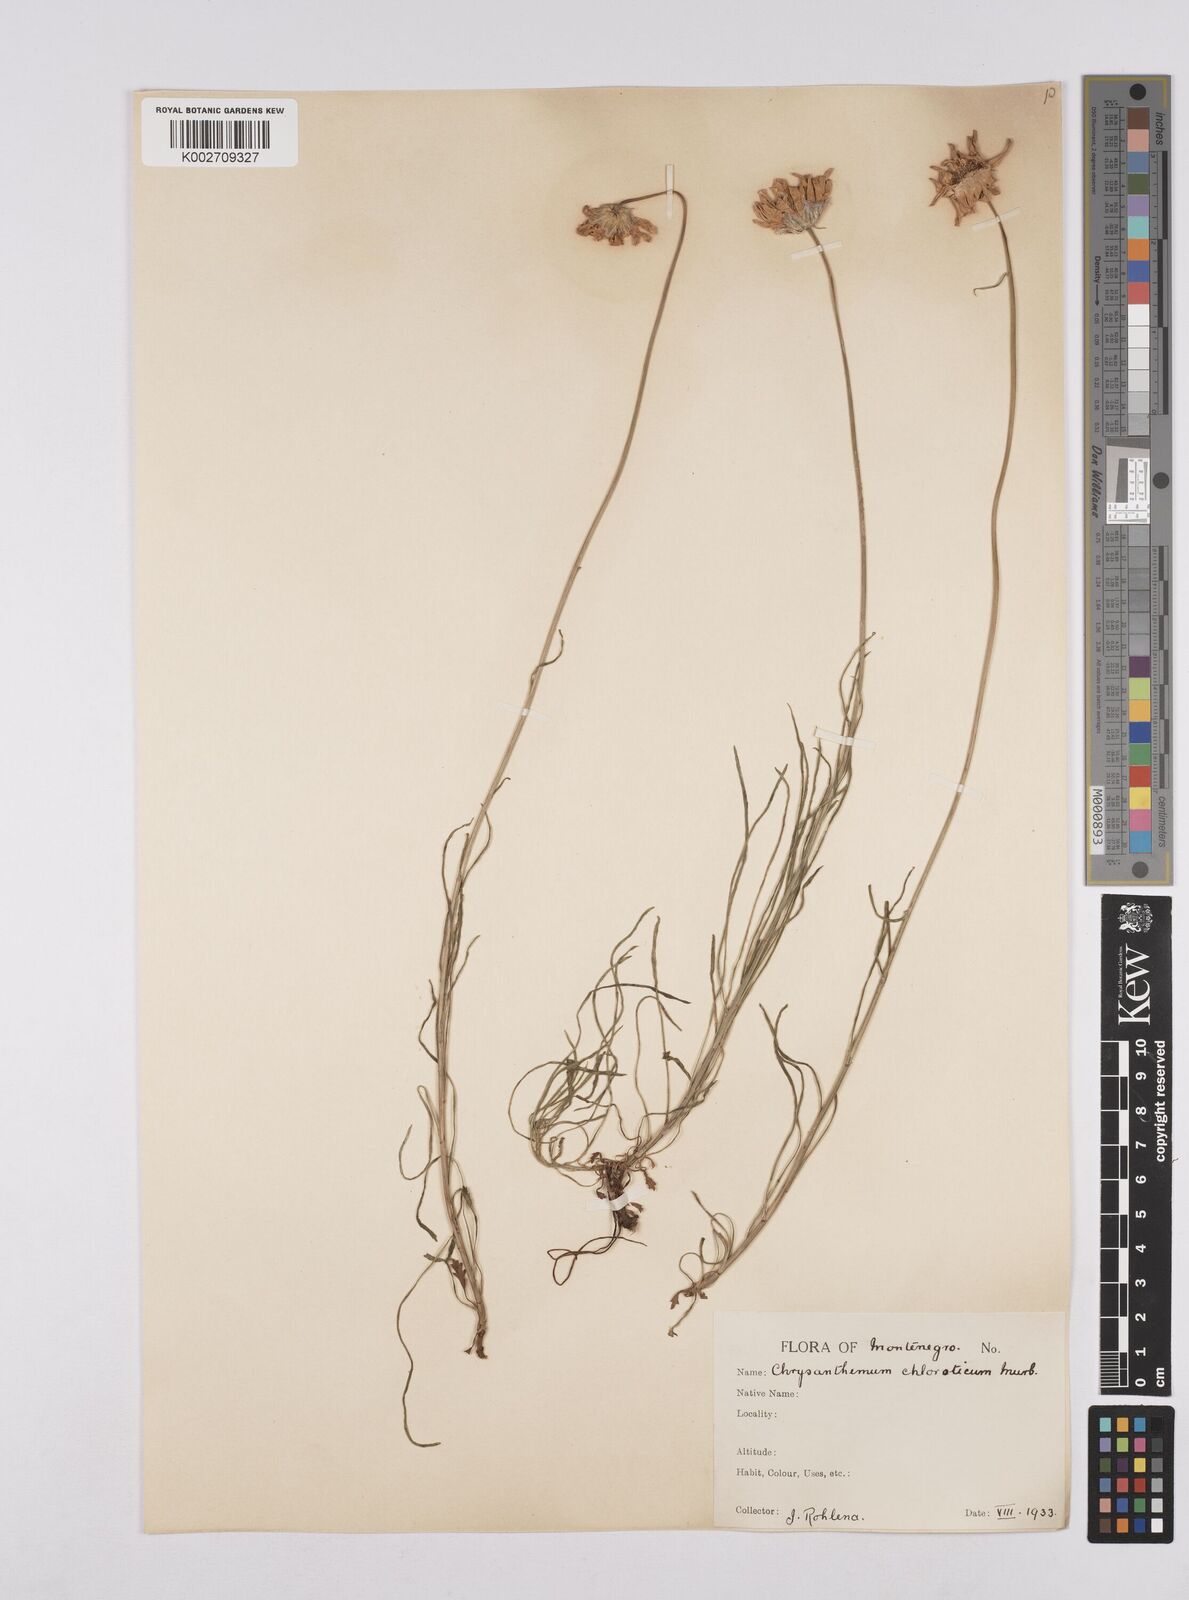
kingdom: Plantae
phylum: Tracheophyta
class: Magnoliopsida
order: Asterales
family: Asteraceae
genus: Leucanthemum
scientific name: Leucanthemum chloroticum
